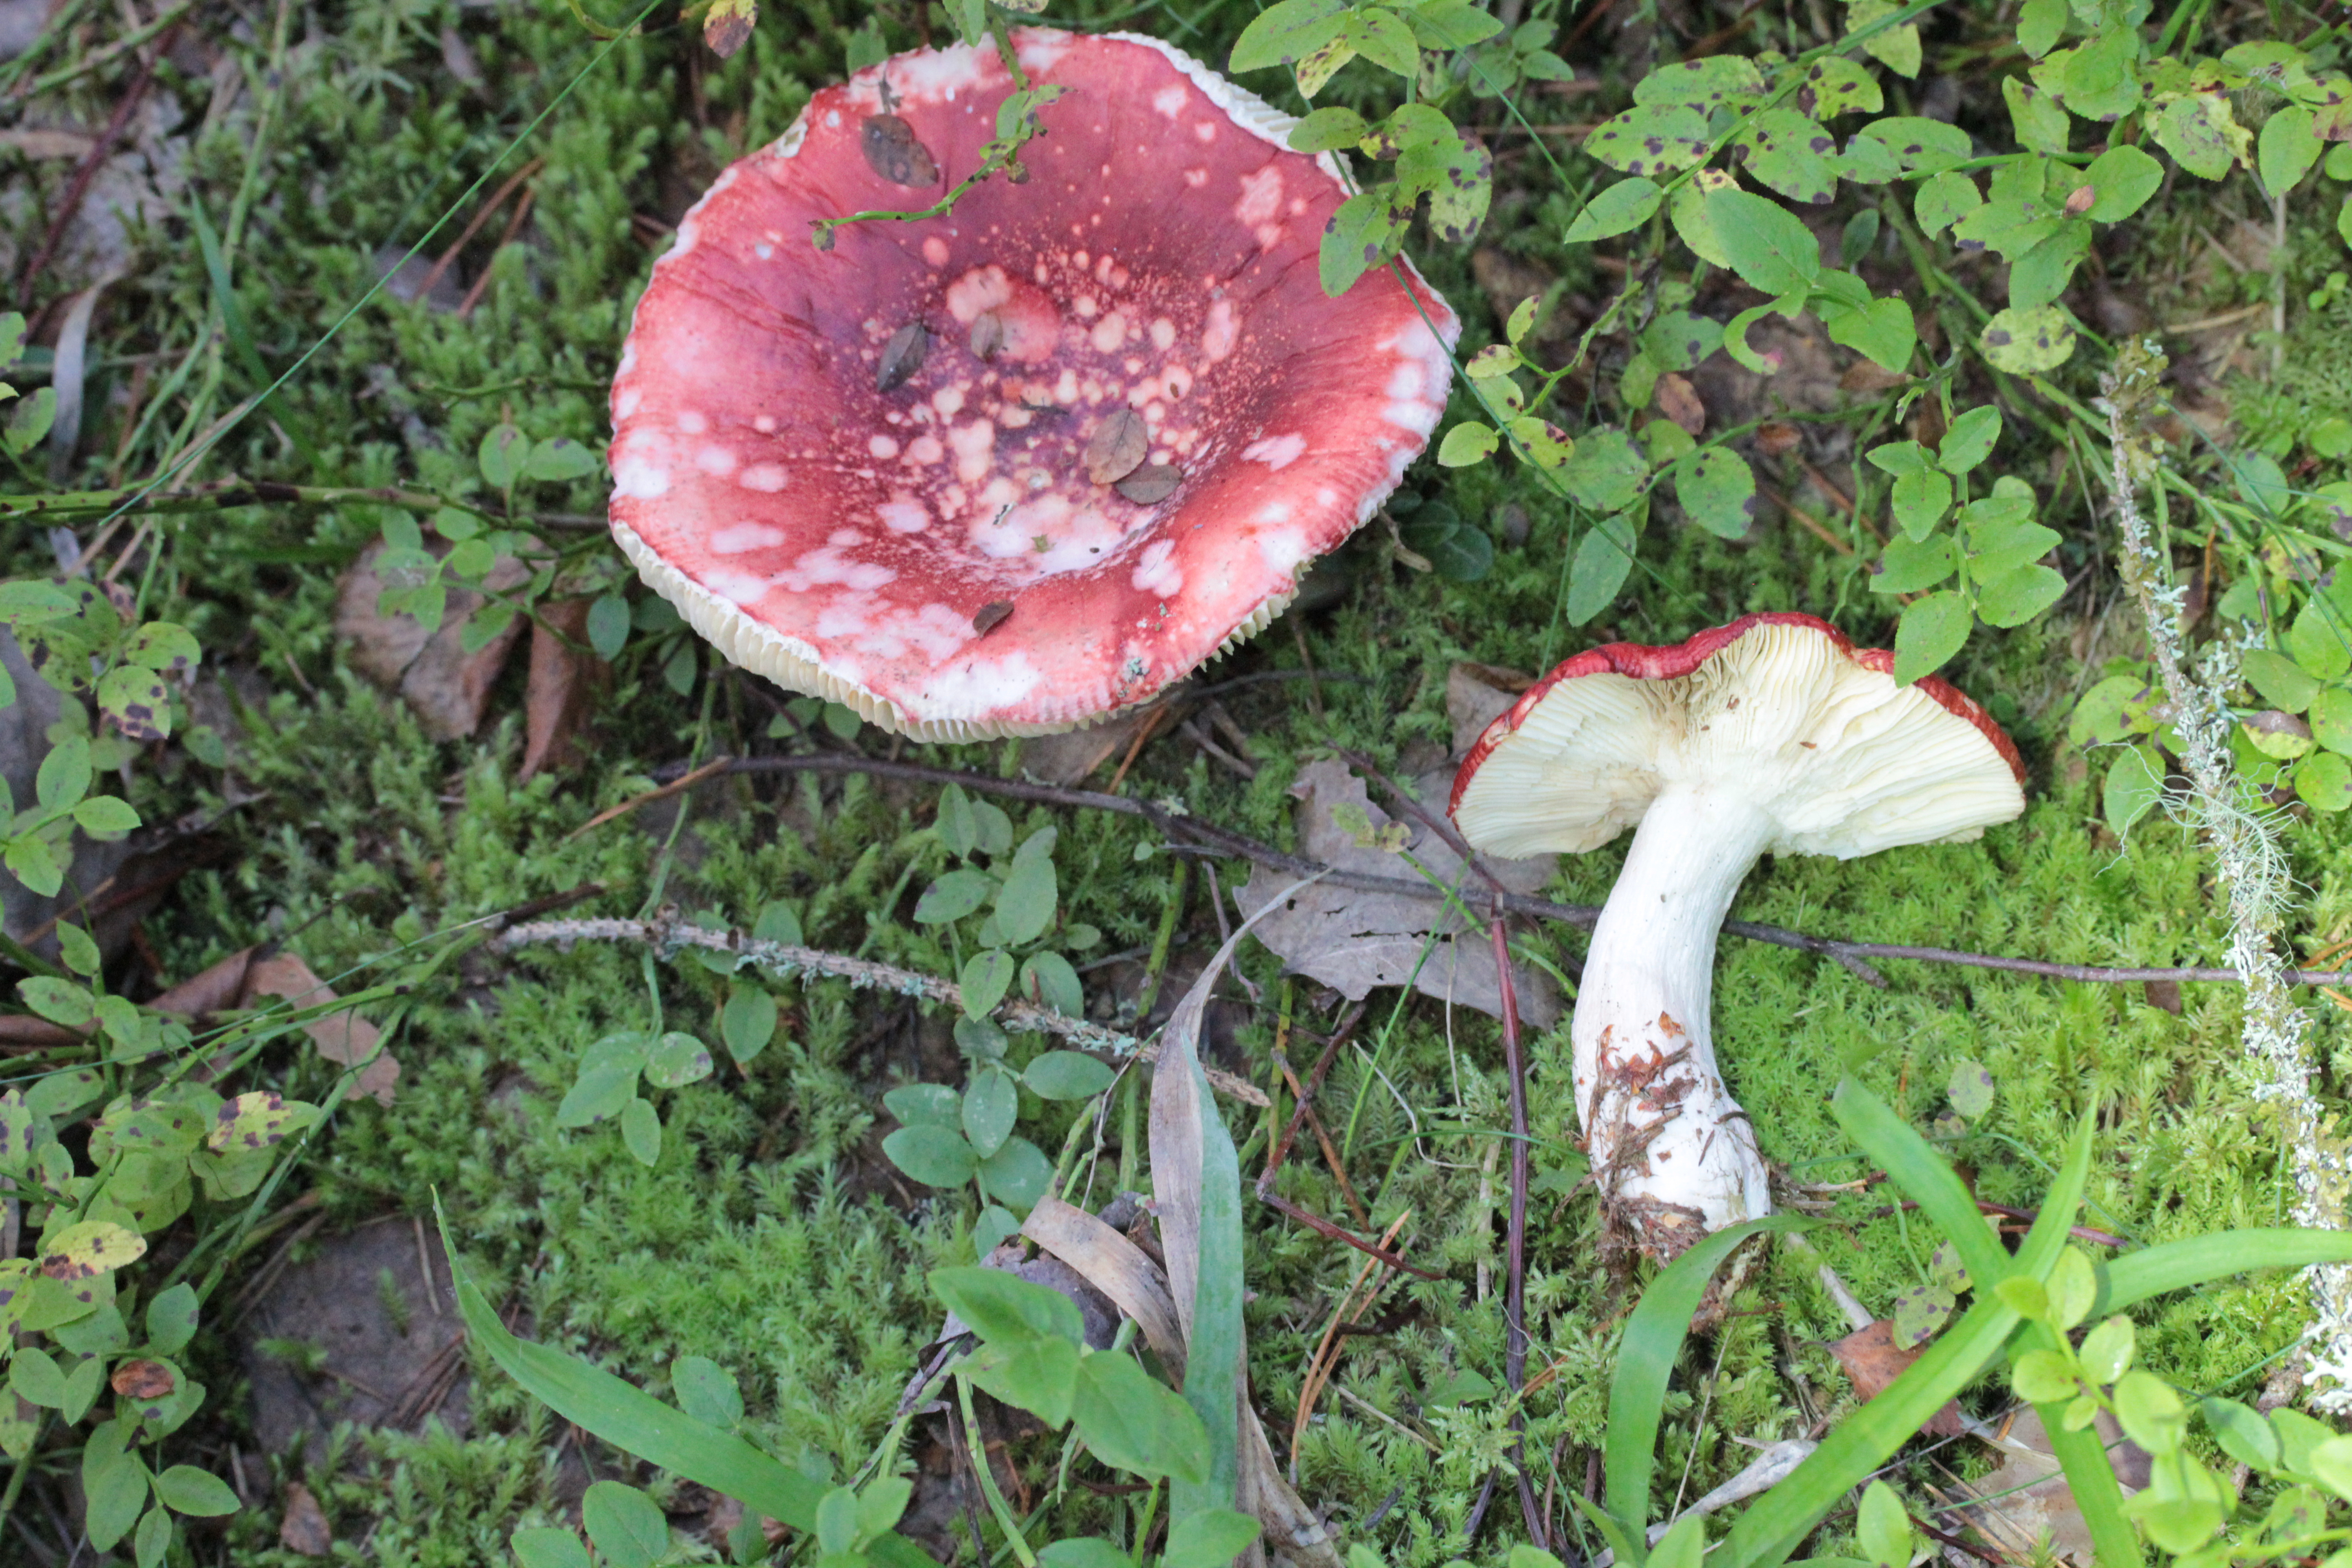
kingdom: Fungi
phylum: Basidiomycota
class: Agaricomycetes
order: Russulales
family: Russulaceae
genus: Russula
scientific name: Russula paludosa
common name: Hintapink
